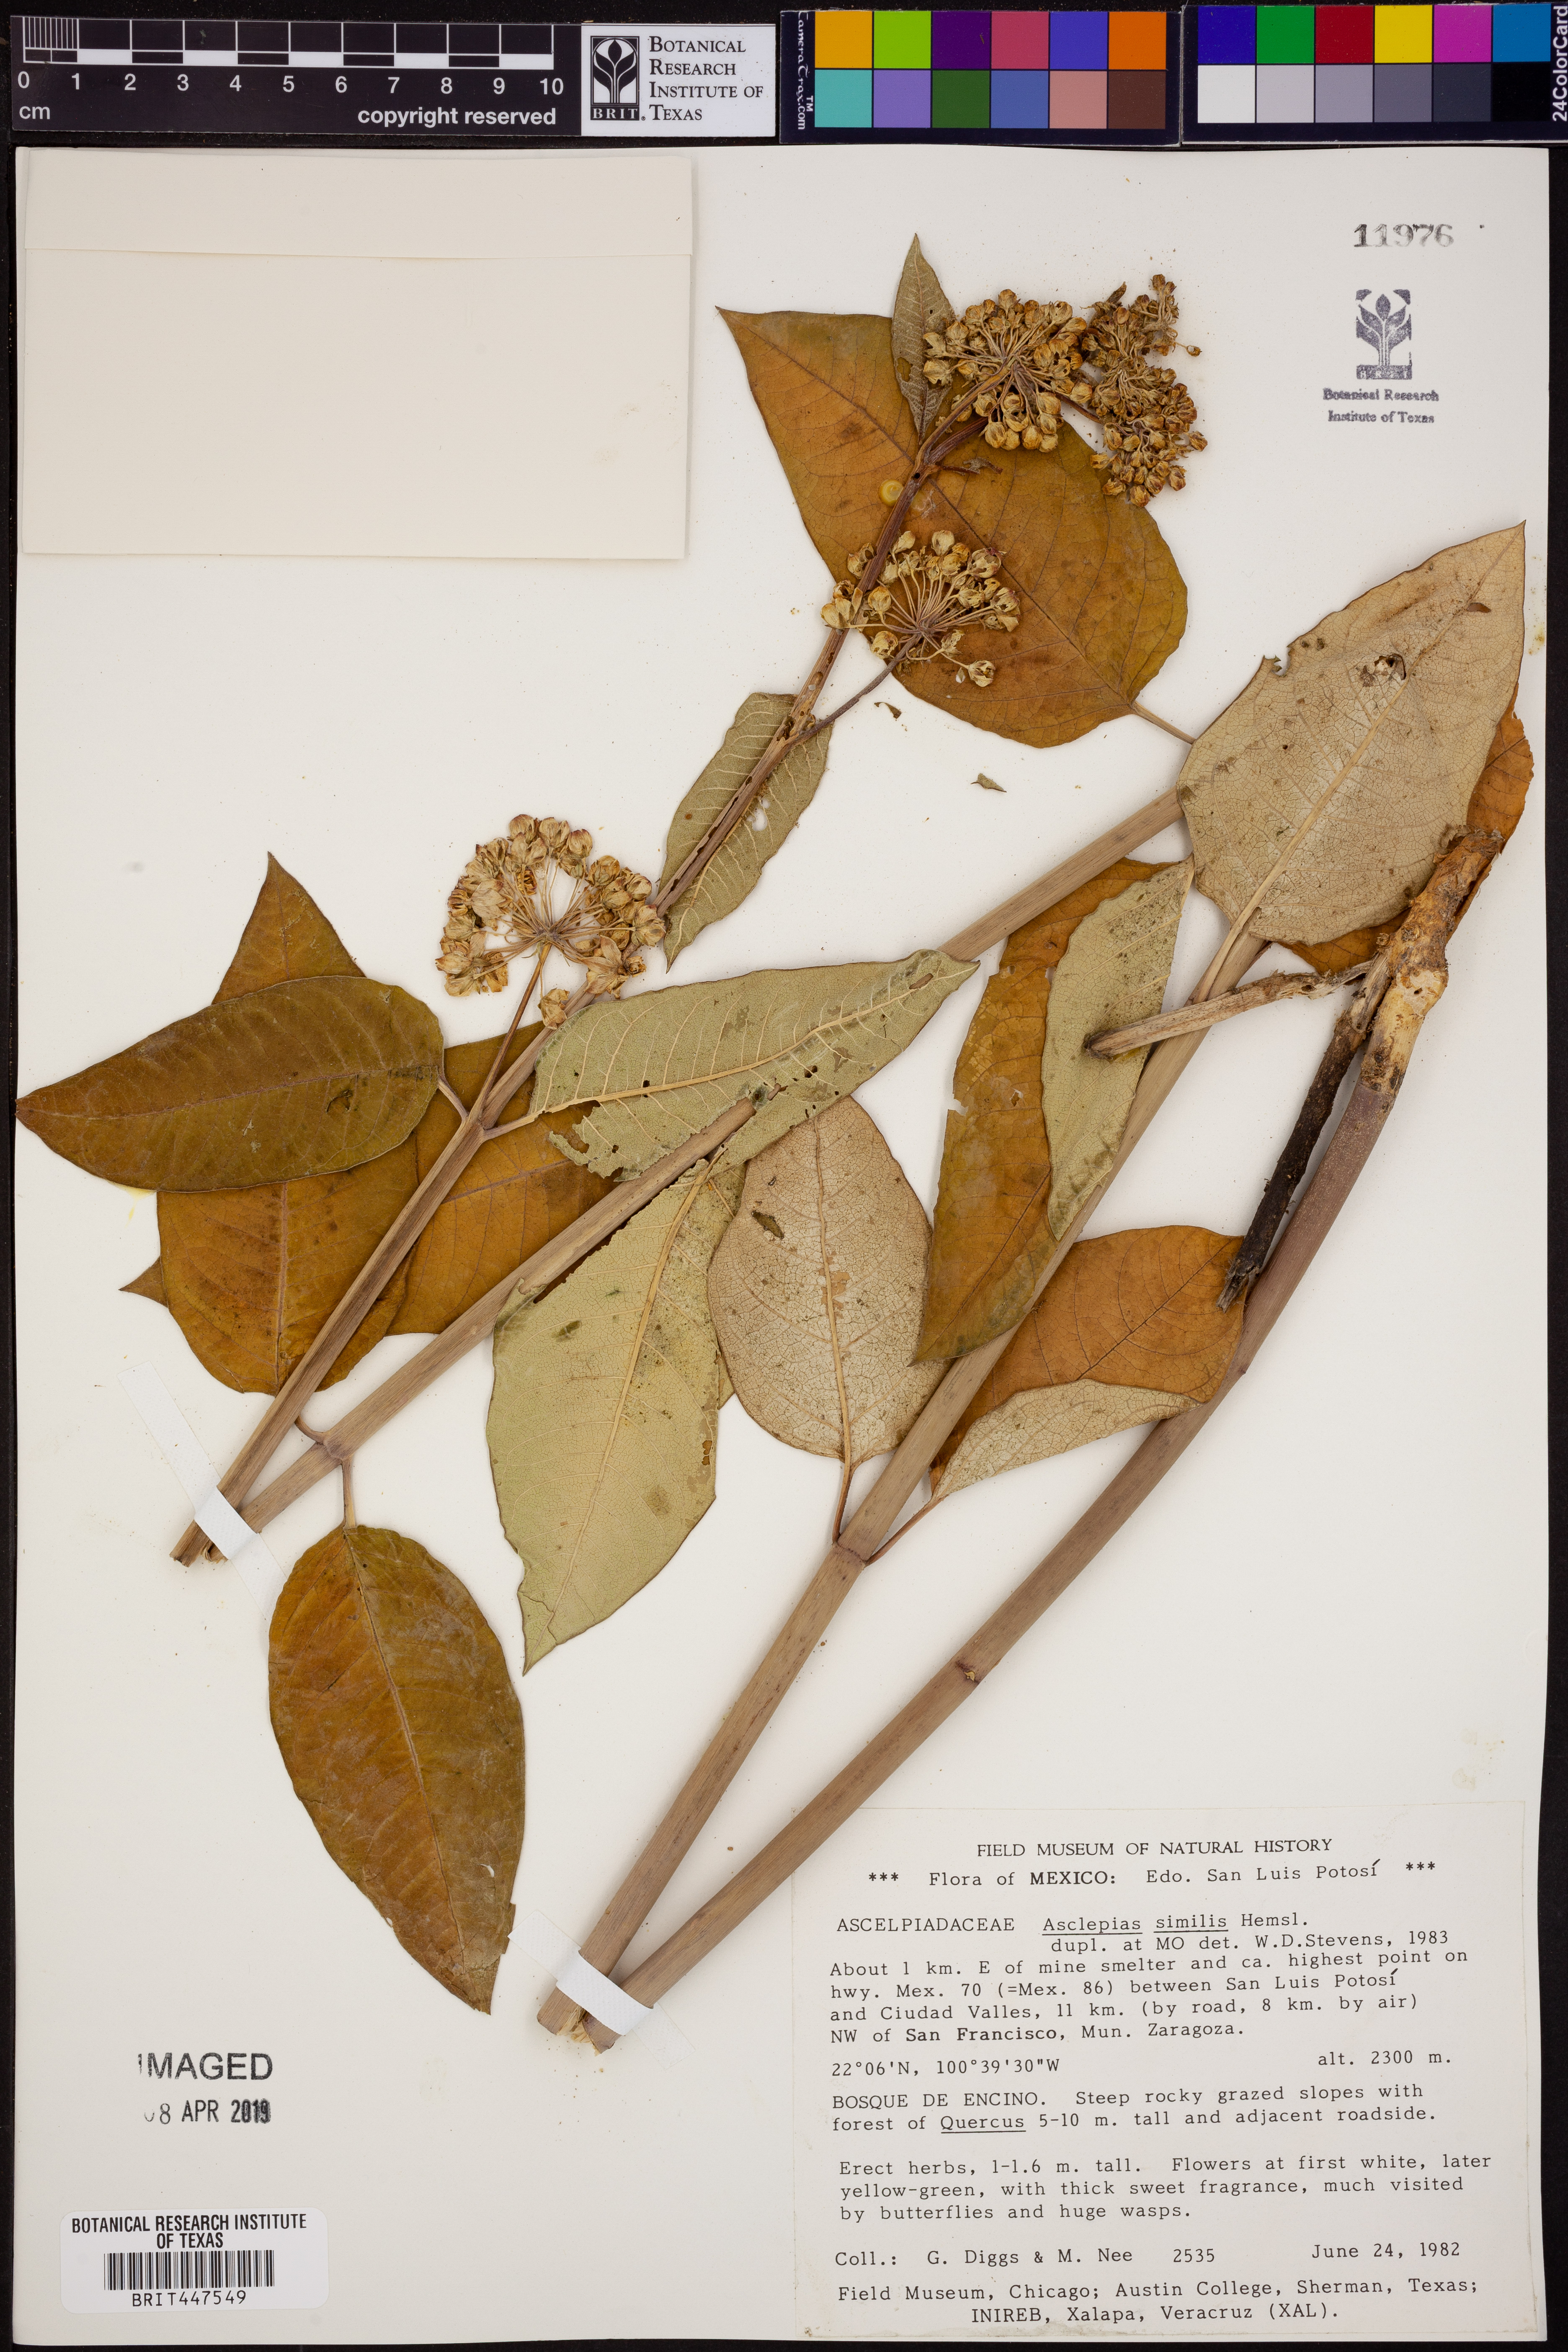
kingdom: Plantae
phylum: Tracheophyta
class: Magnoliopsida
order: Gentianales
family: Apocynaceae
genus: Asclepias
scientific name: Asclepias similis
